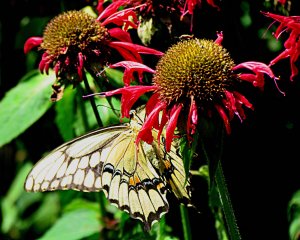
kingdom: Animalia
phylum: Arthropoda
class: Insecta
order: Lepidoptera
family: Papilionidae
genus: Papilio
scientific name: Papilio cresphontes
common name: Eastern Giant Swallowtail
